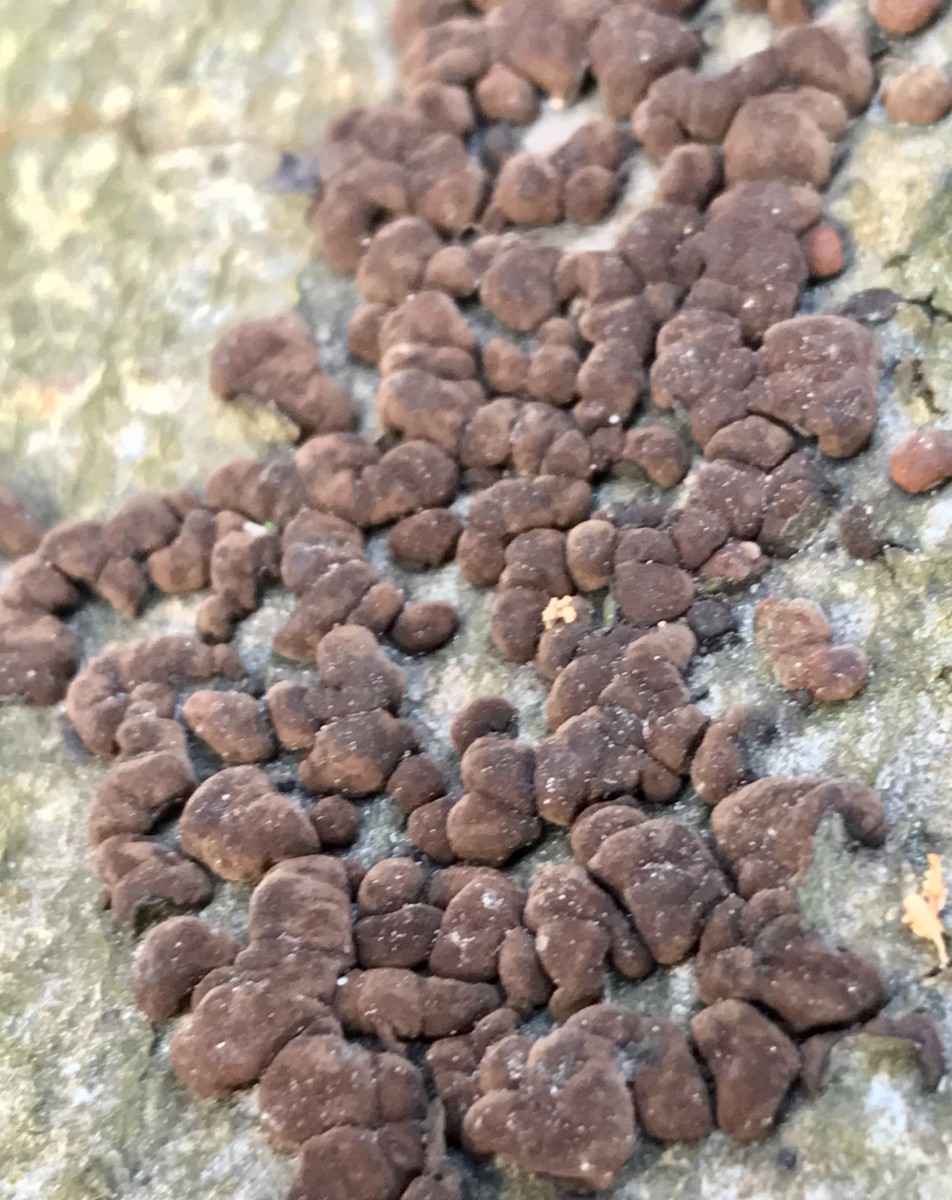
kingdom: Fungi
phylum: Ascomycota
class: Sordariomycetes
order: Xylariales
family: Hypoxylaceae
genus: Hypoxylon
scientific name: Hypoxylon fragiforme
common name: kuljordbær
